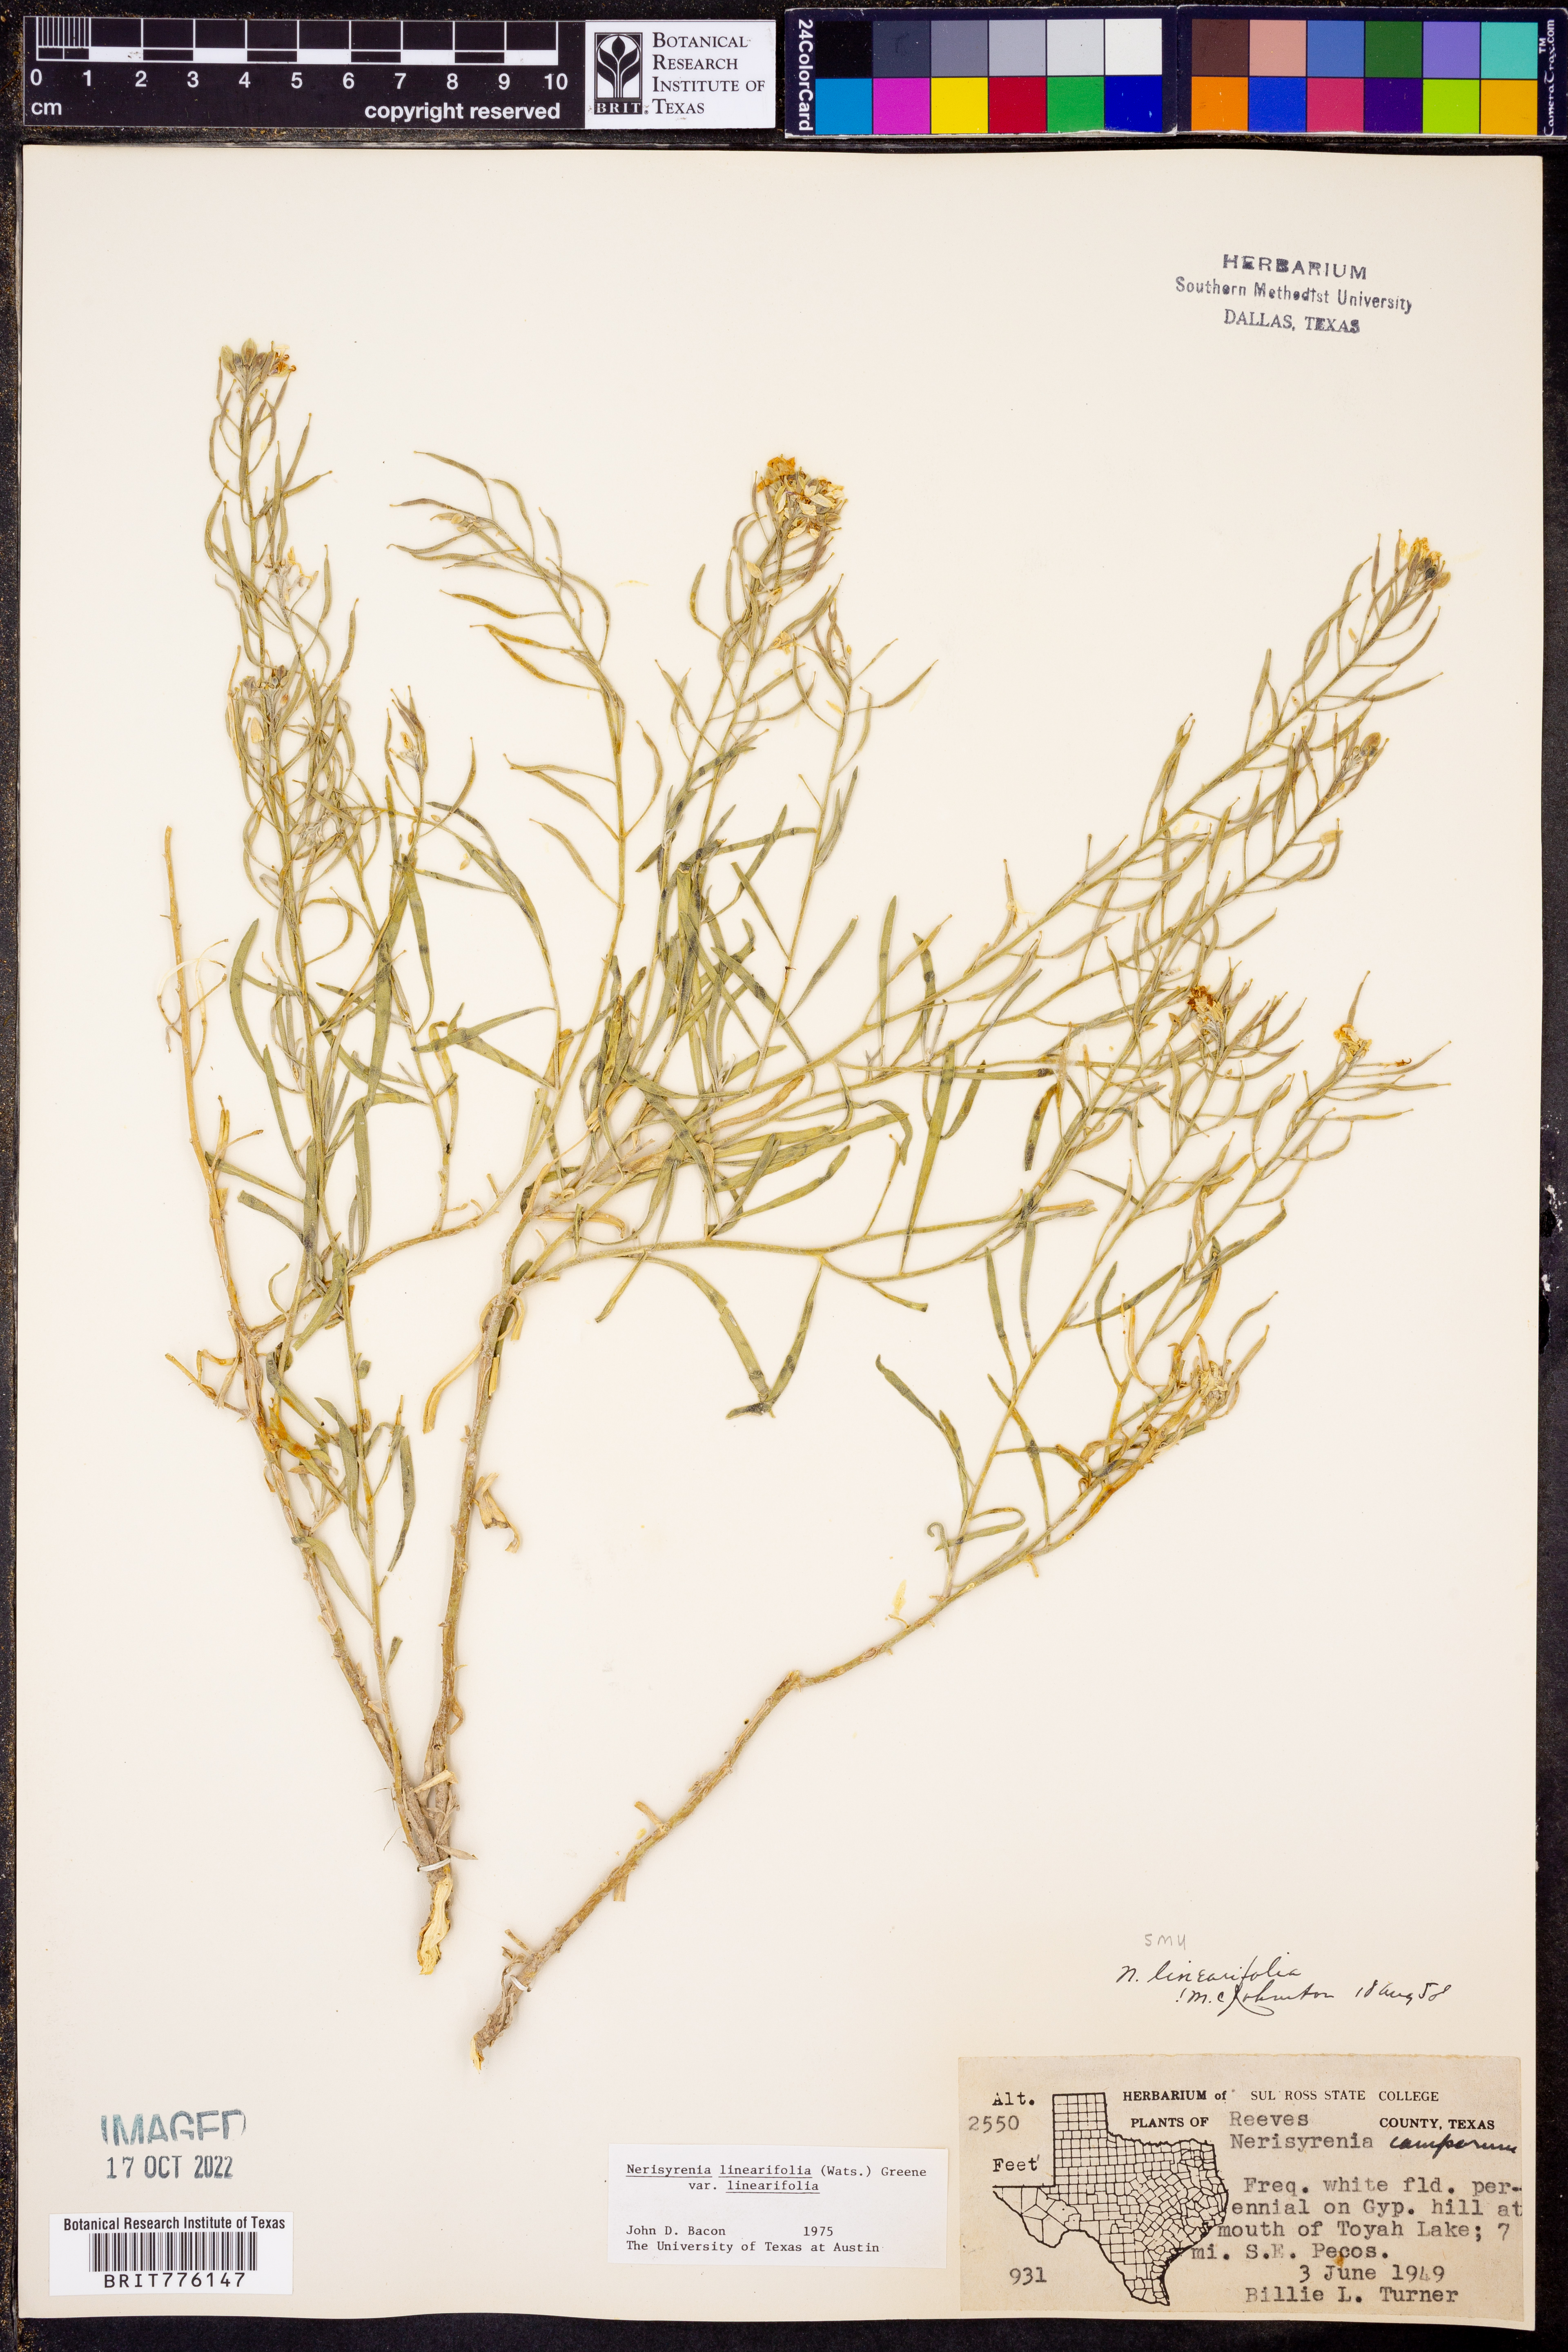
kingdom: Plantae
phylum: Tracheophyta
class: Magnoliopsida
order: Brassicales
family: Brassicaceae
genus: Nerisyrenia
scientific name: Nerisyrenia linearifolia
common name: White sands fan mustard
